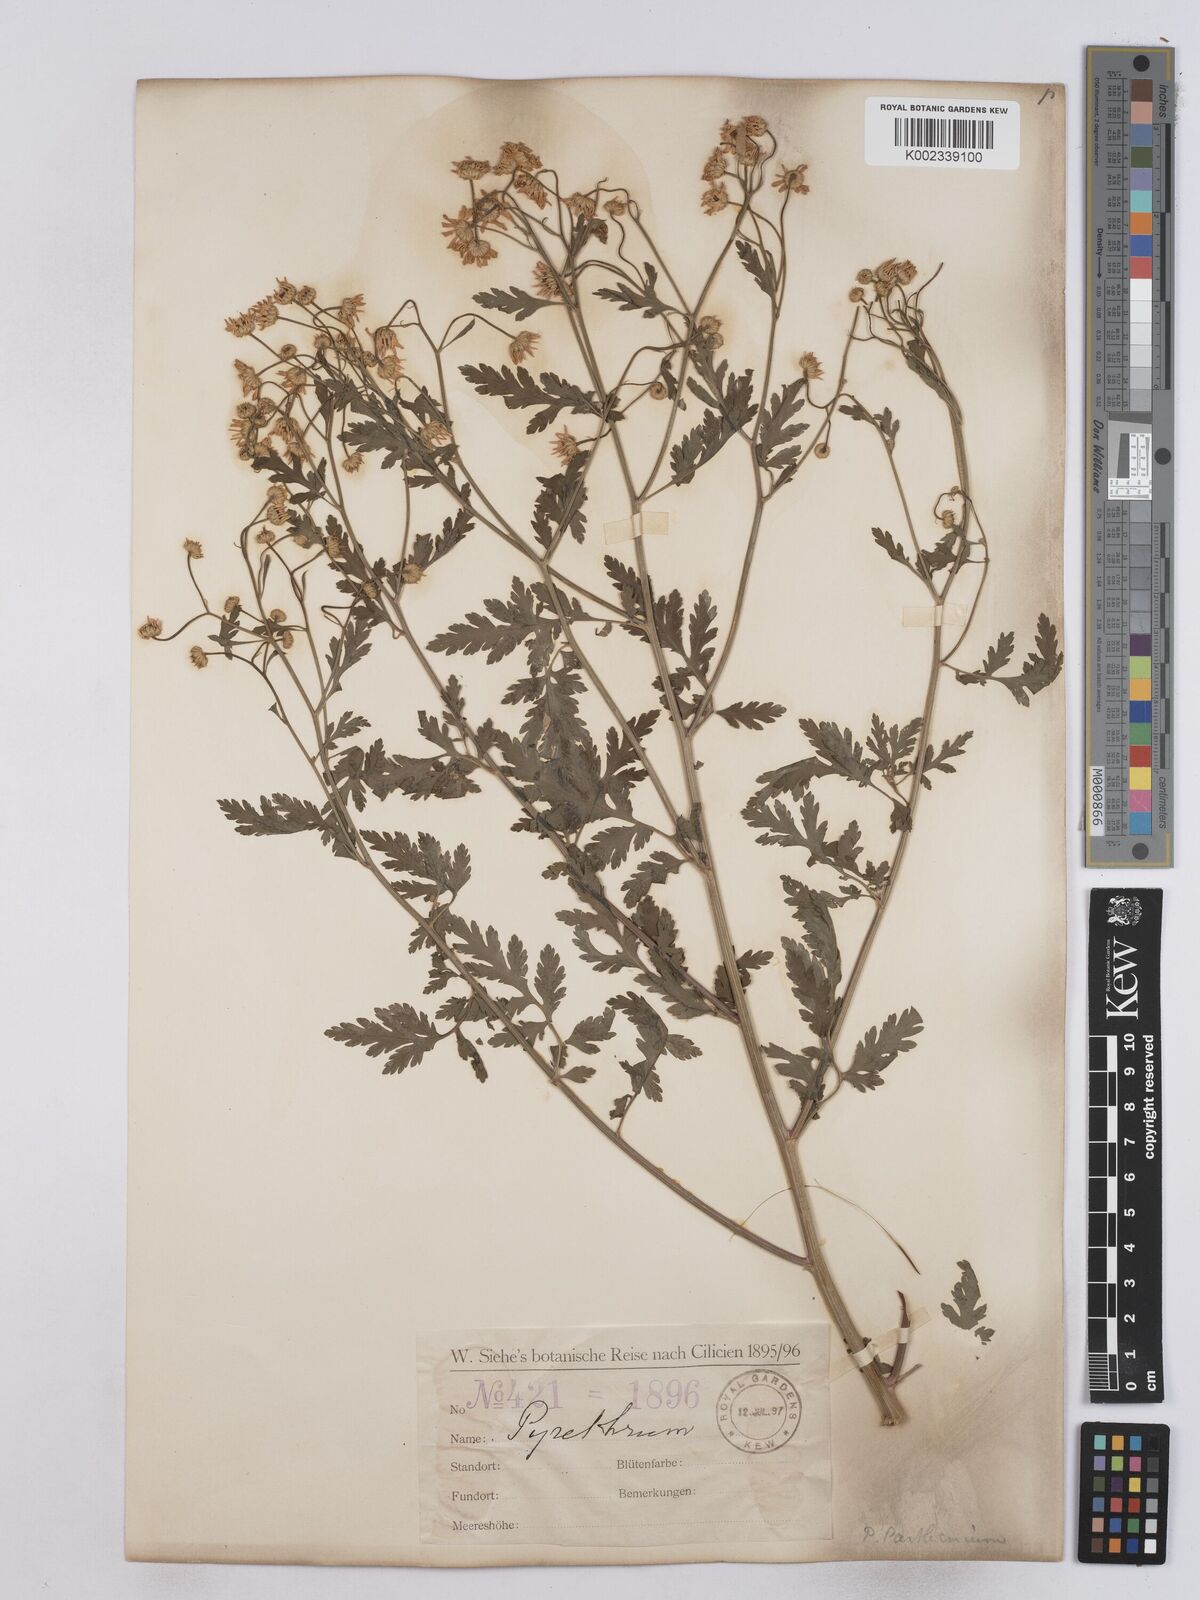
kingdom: Plantae
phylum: Tracheophyta
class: Magnoliopsida
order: Asterales
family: Asteraceae
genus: Tanacetum
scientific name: Tanacetum parthenium
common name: Feverfew
